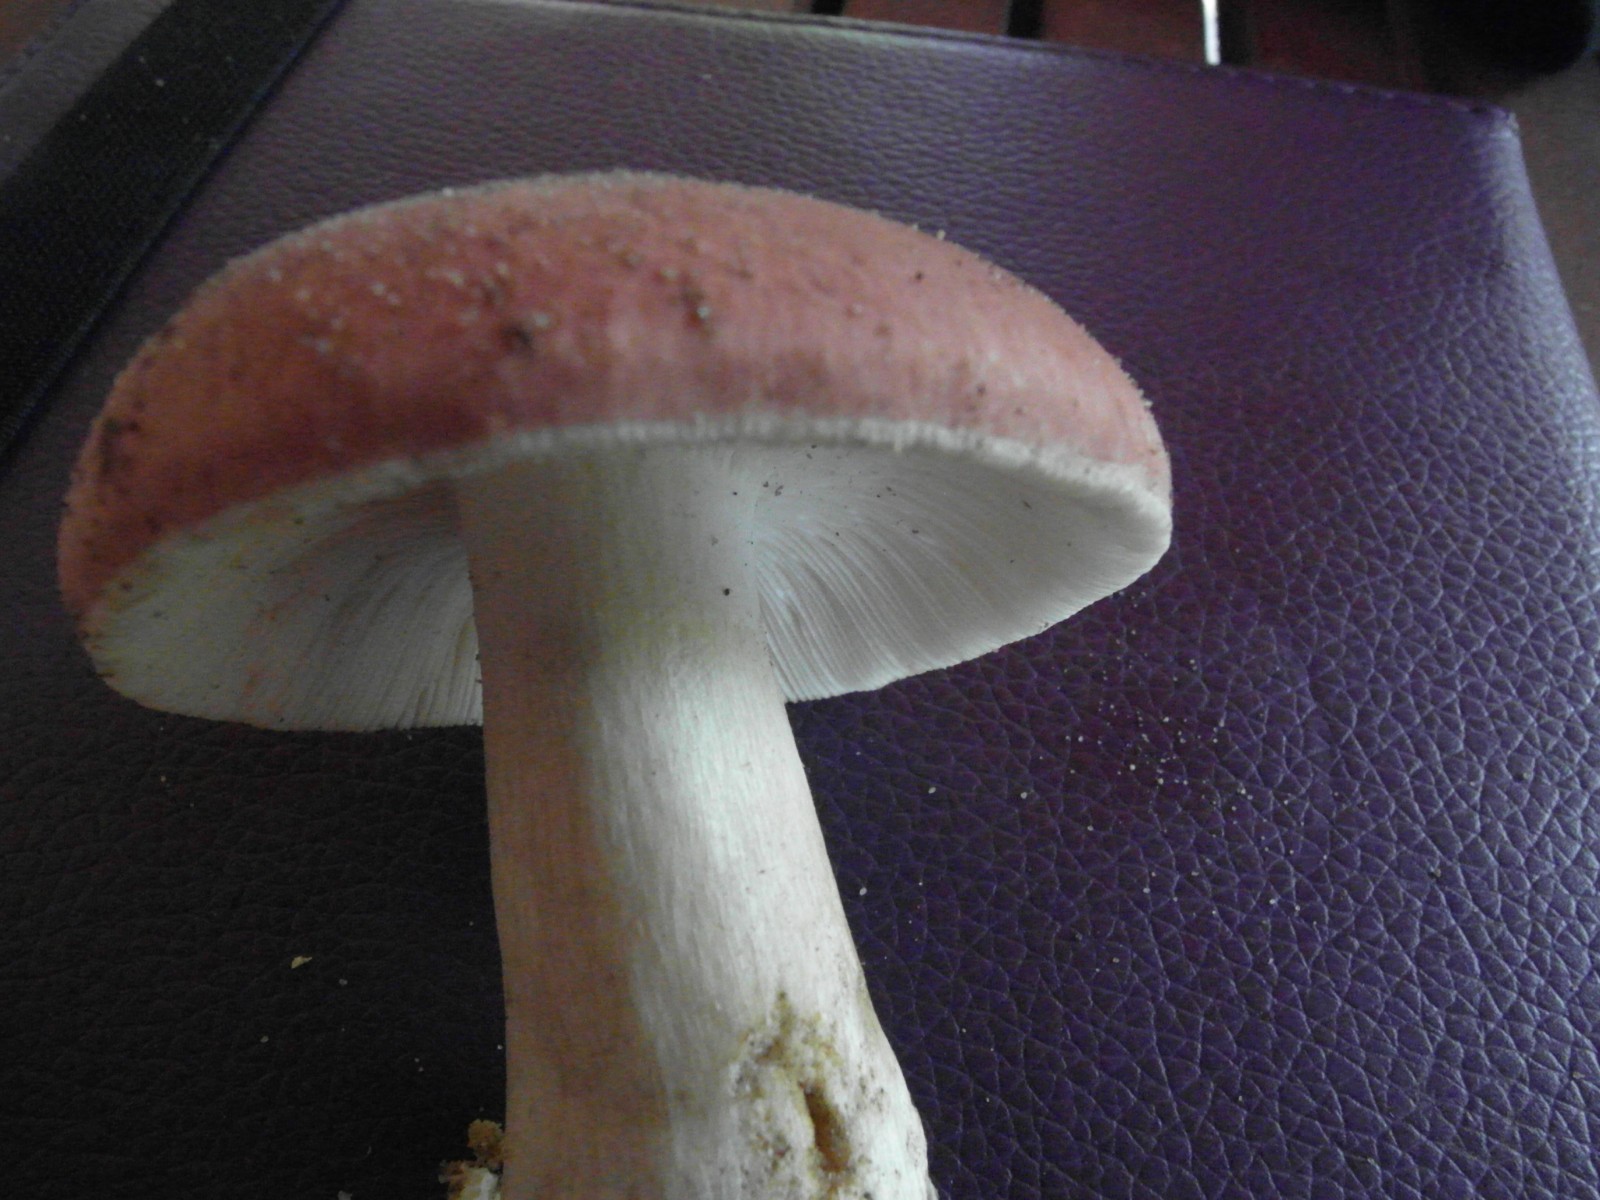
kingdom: Fungi
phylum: Basidiomycota
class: Agaricomycetes
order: Russulales
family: Russulaceae
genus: Russula
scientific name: Russula vesca
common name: spiselig skørhat
